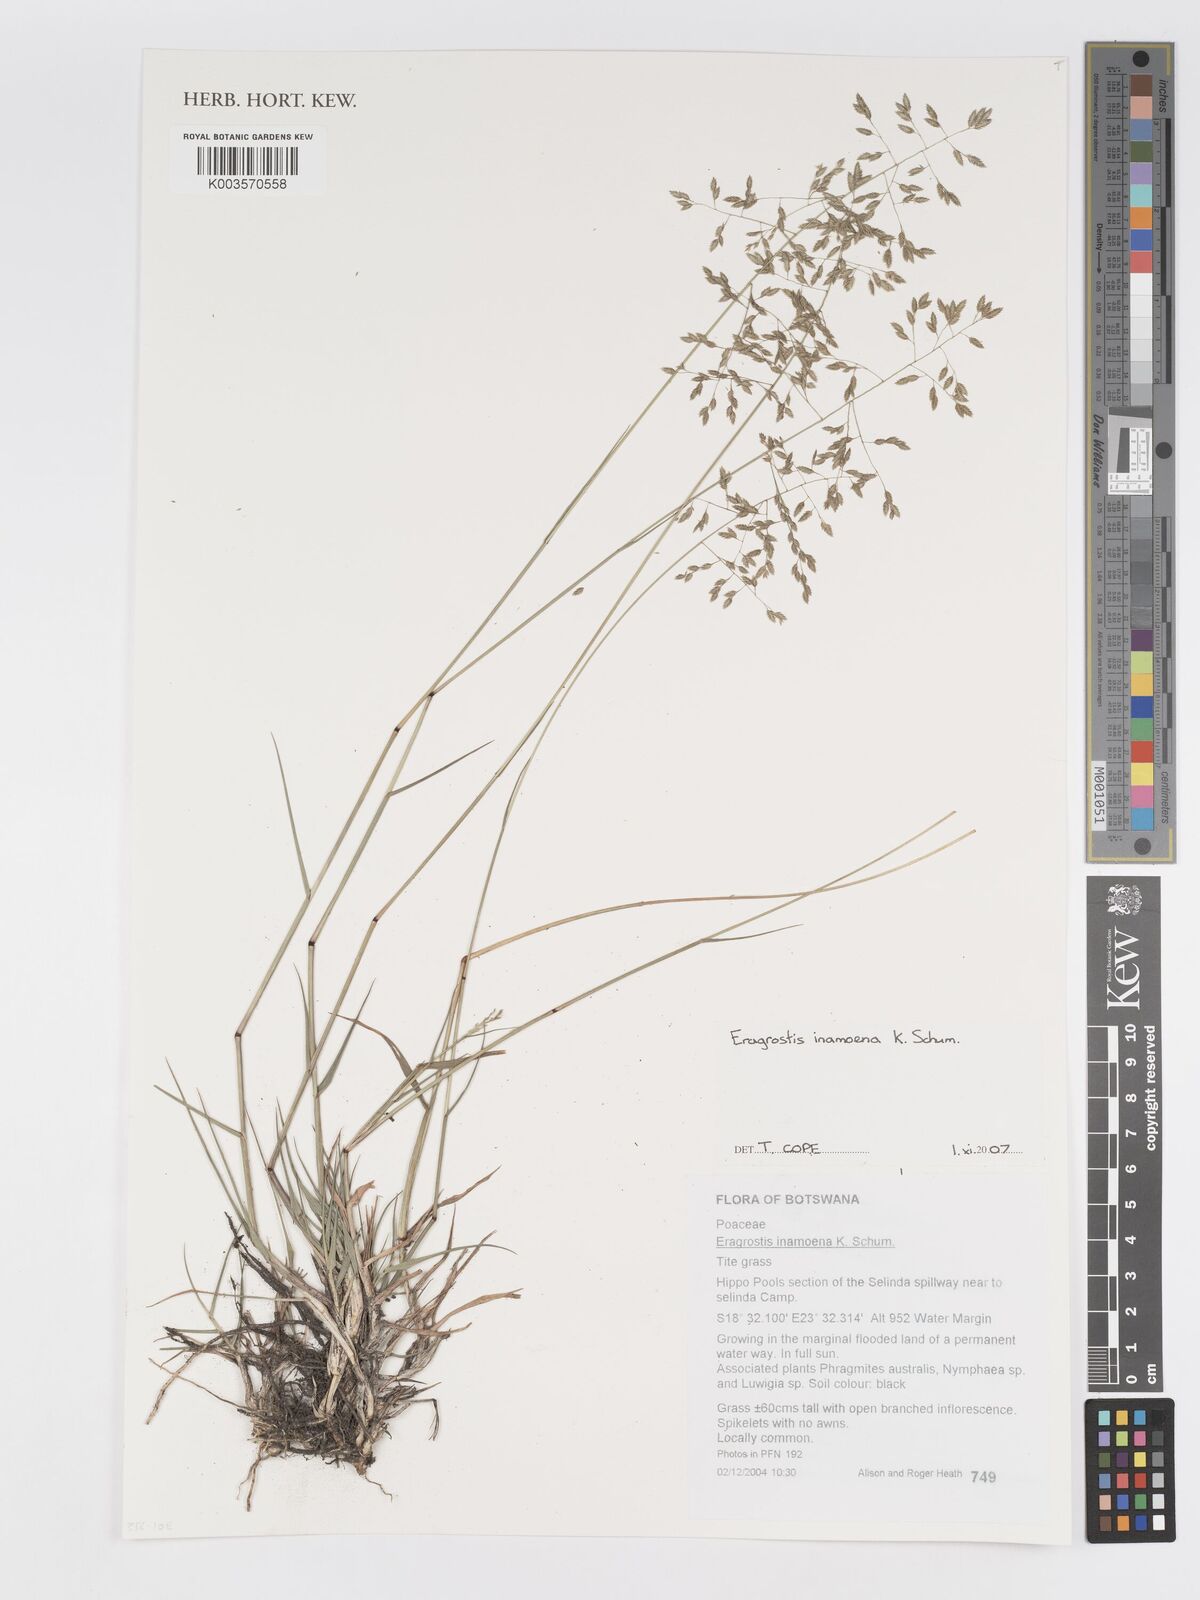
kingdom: Plantae
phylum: Tracheophyta
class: Liliopsida
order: Poales
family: Poaceae
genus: Eragrostis
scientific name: Eragrostis inamoena
